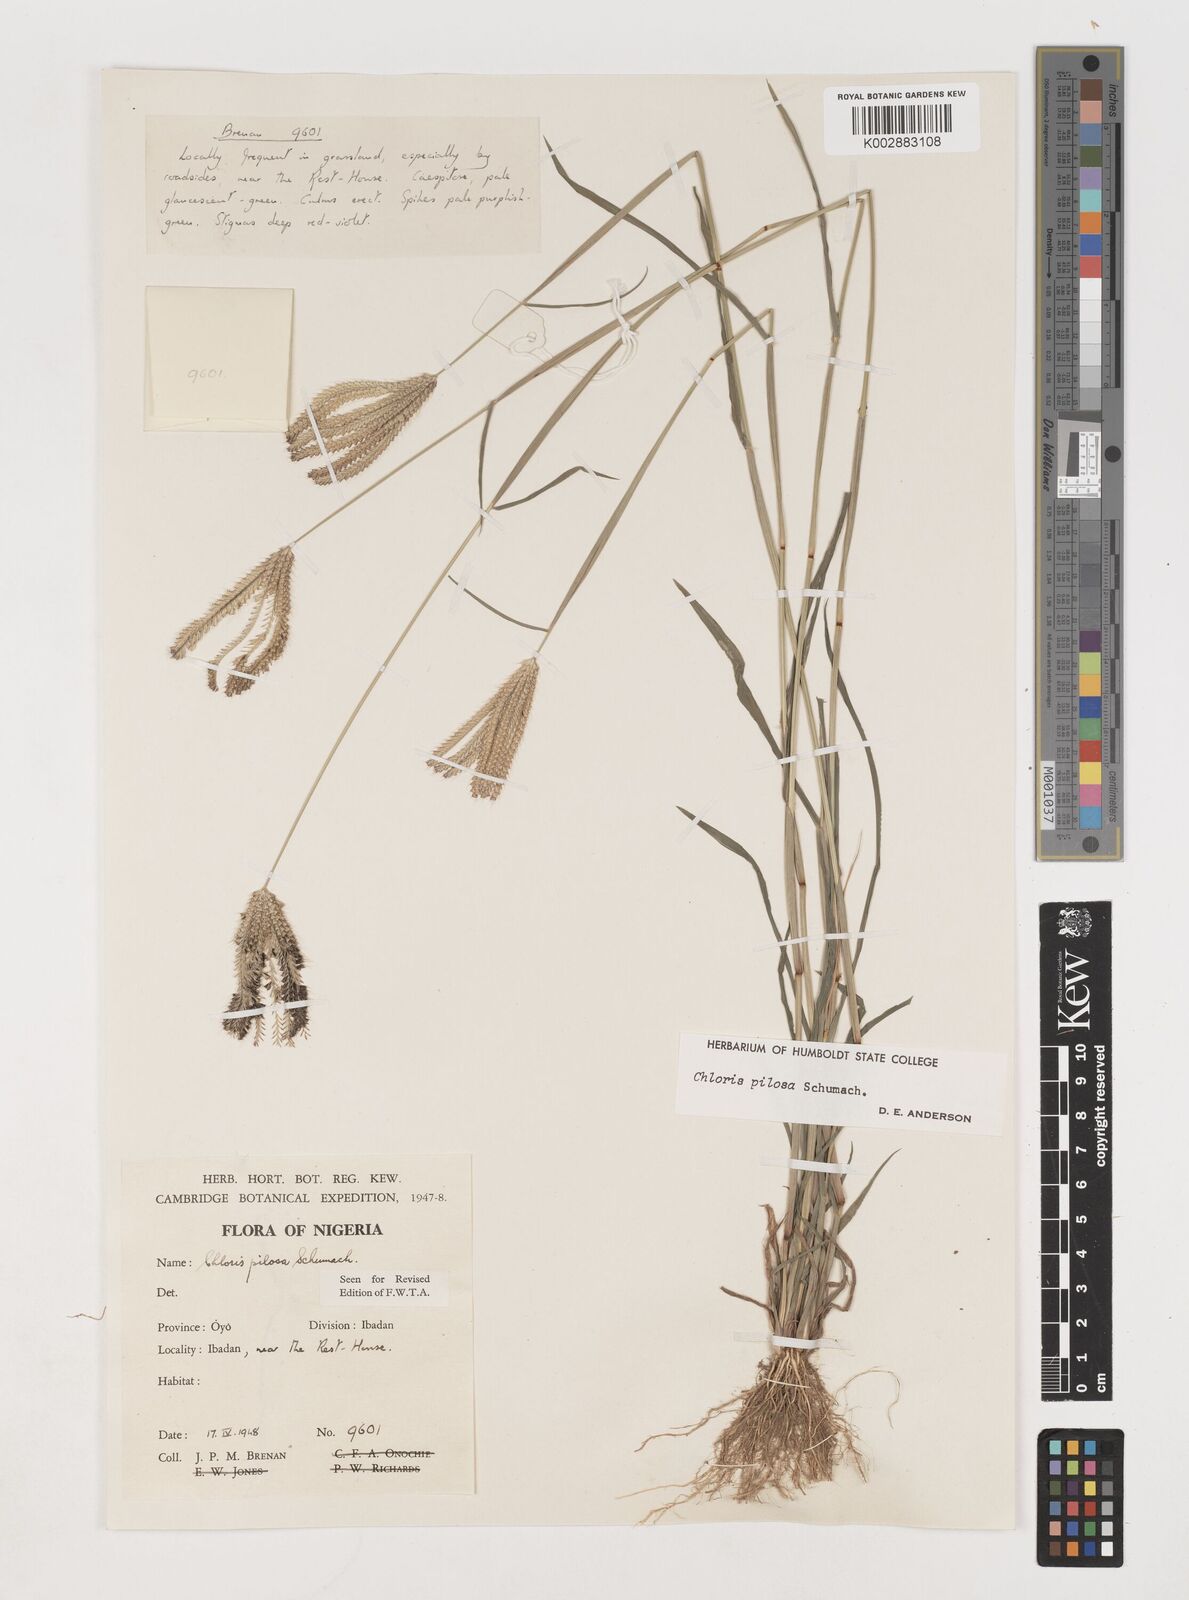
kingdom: Plantae
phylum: Tracheophyta
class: Liliopsida
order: Poales
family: Poaceae
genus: Chloris
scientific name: Chloris pilosa
